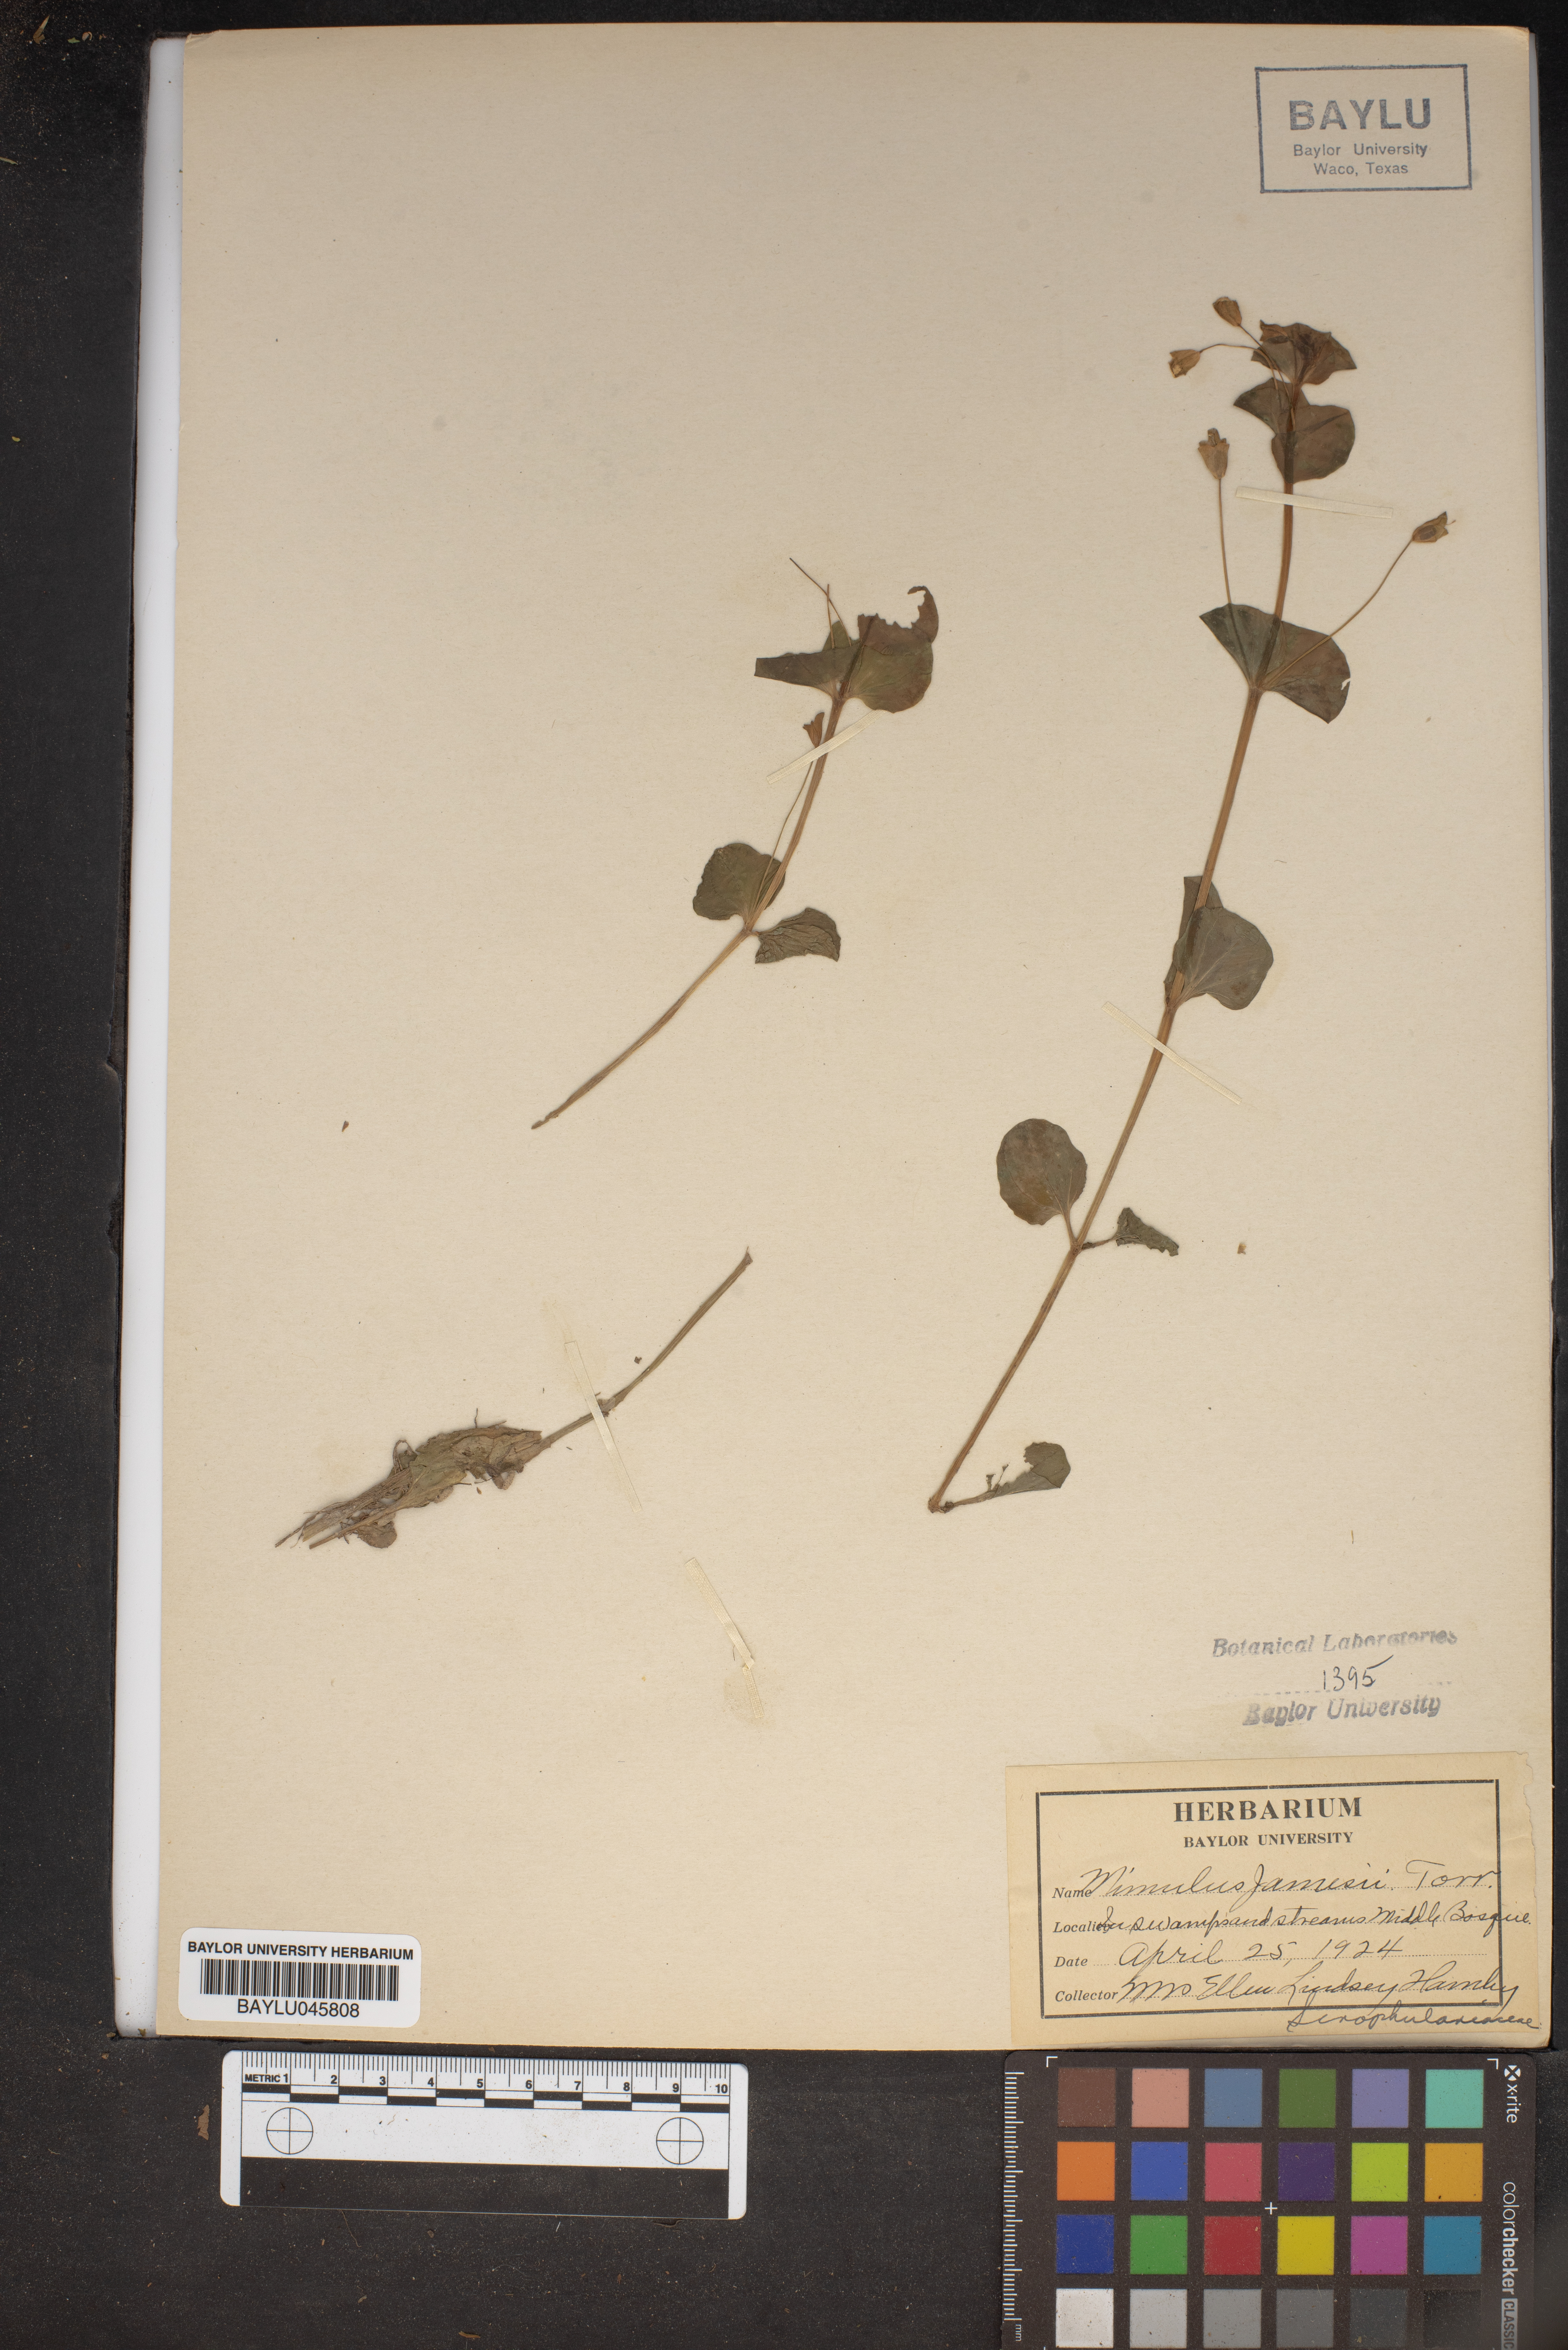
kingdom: Plantae
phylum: Tracheophyta
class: Magnoliopsida
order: Lamiales
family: Phrymaceae
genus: Erythranthe
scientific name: Erythranthe geyeri
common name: Geyer's monkeyflower
